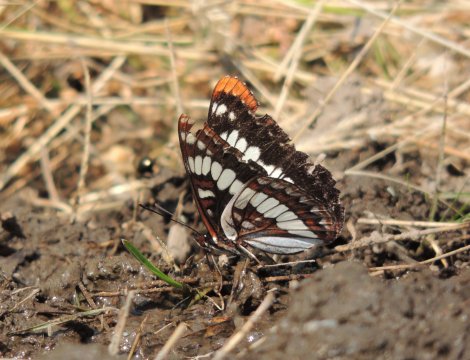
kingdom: Animalia
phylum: Arthropoda
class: Insecta
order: Lepidoptera
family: Nymphalidae
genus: Limenitis
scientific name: Limenitis lorquini
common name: Lorquin's Admiral
